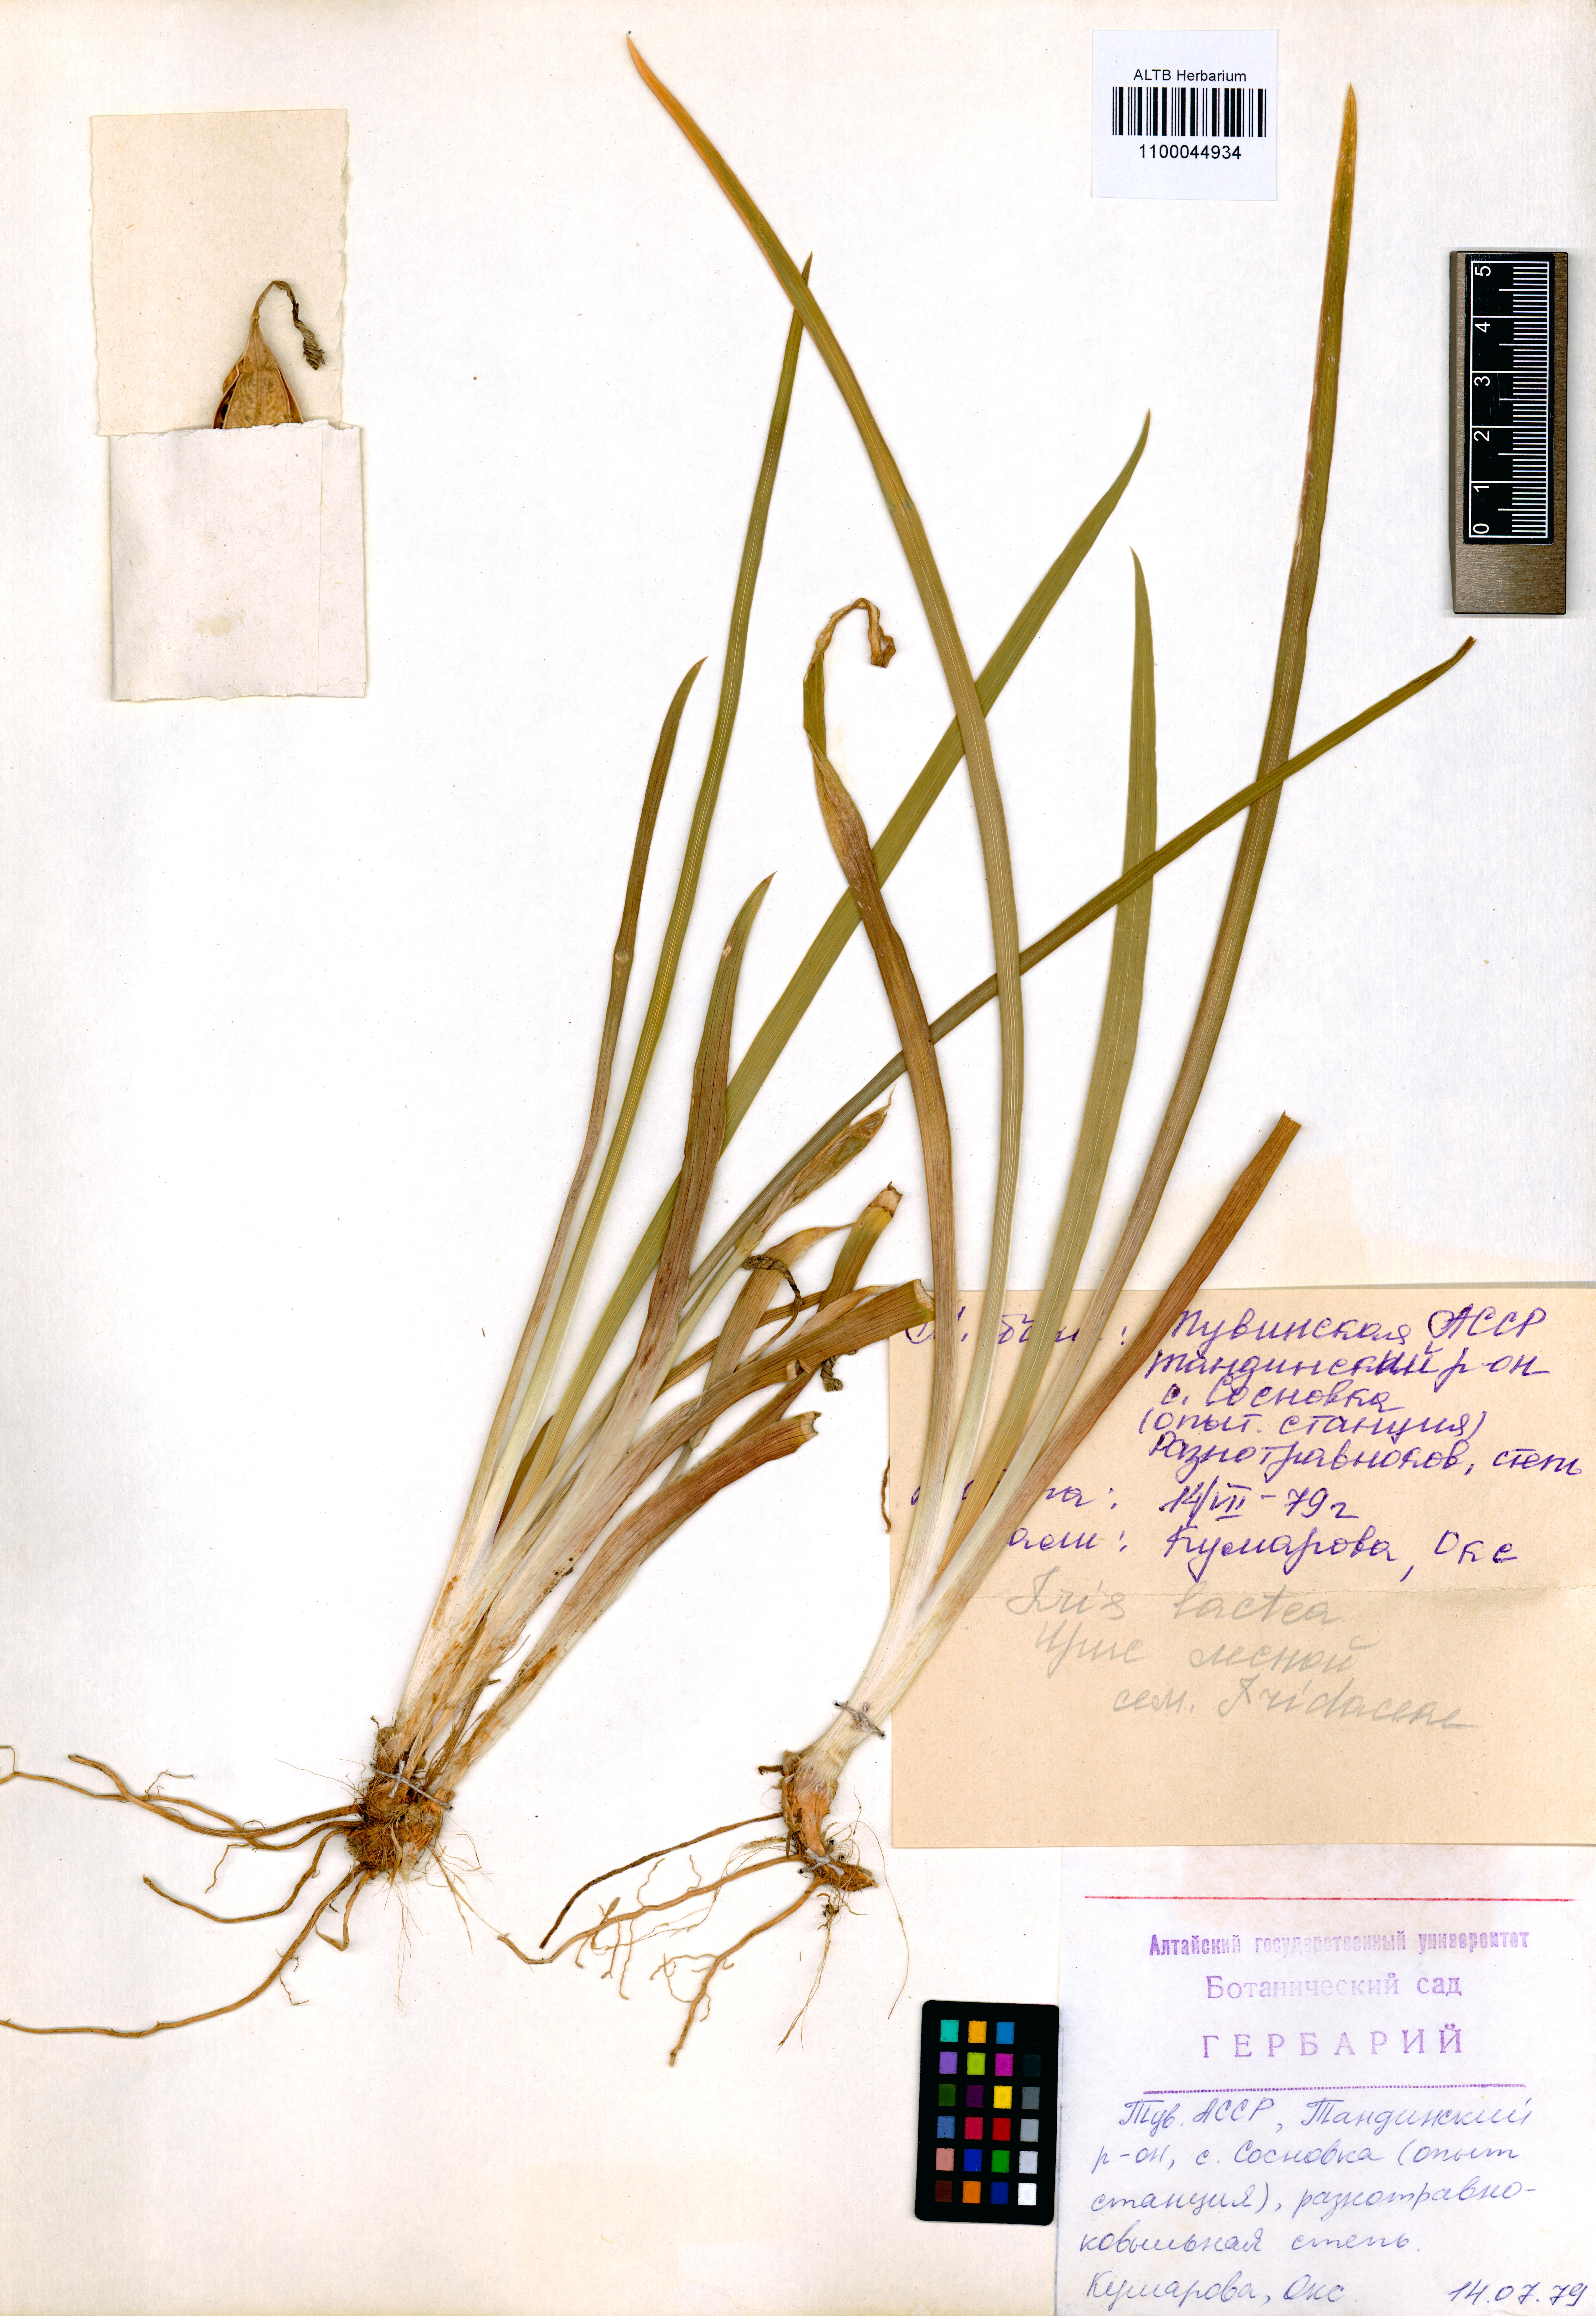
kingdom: Plantae
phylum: Tracheophyta
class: Liliopsida
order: Asparagales
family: Iridaceae
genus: Iris
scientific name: Iris lactea
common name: White-flower chinese iris
